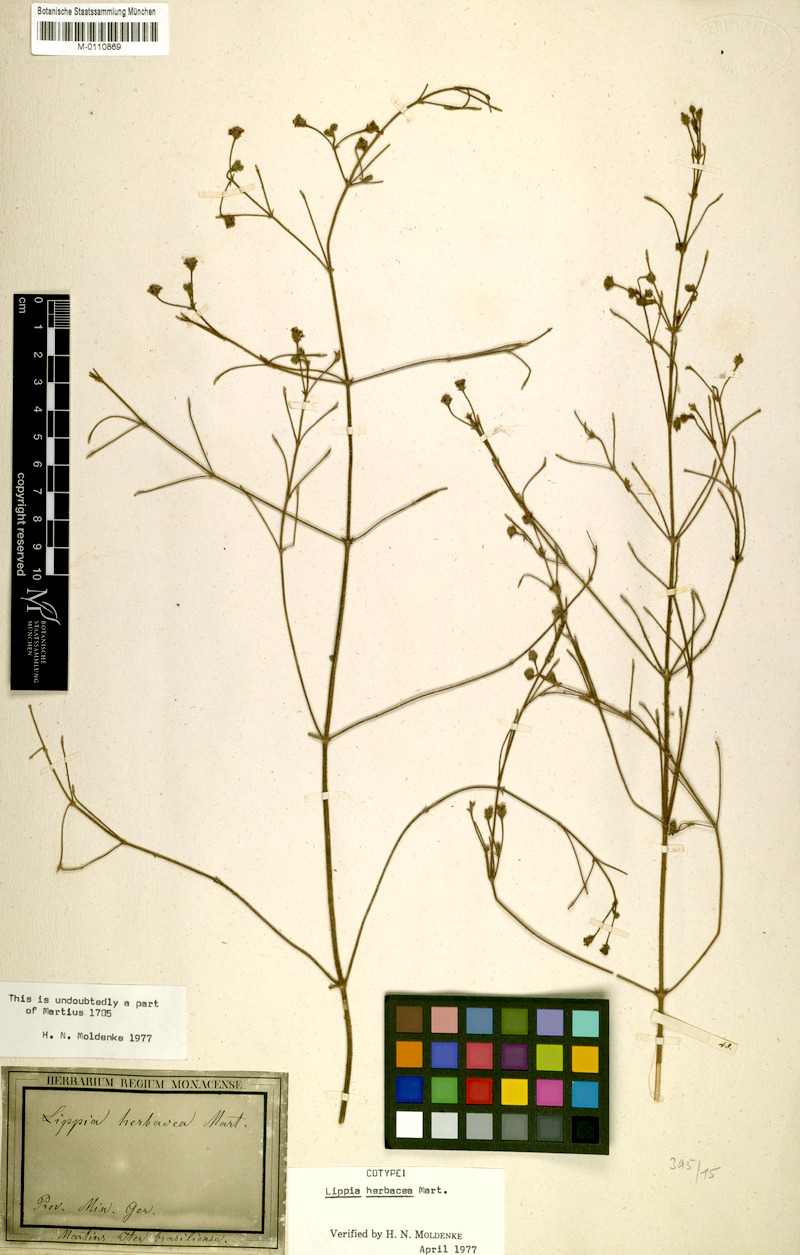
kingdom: Plantae
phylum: Tracheophyta
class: Magnoliopsida
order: Lamiales
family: Verbenaceae
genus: Lippia
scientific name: Lippia herbacea
